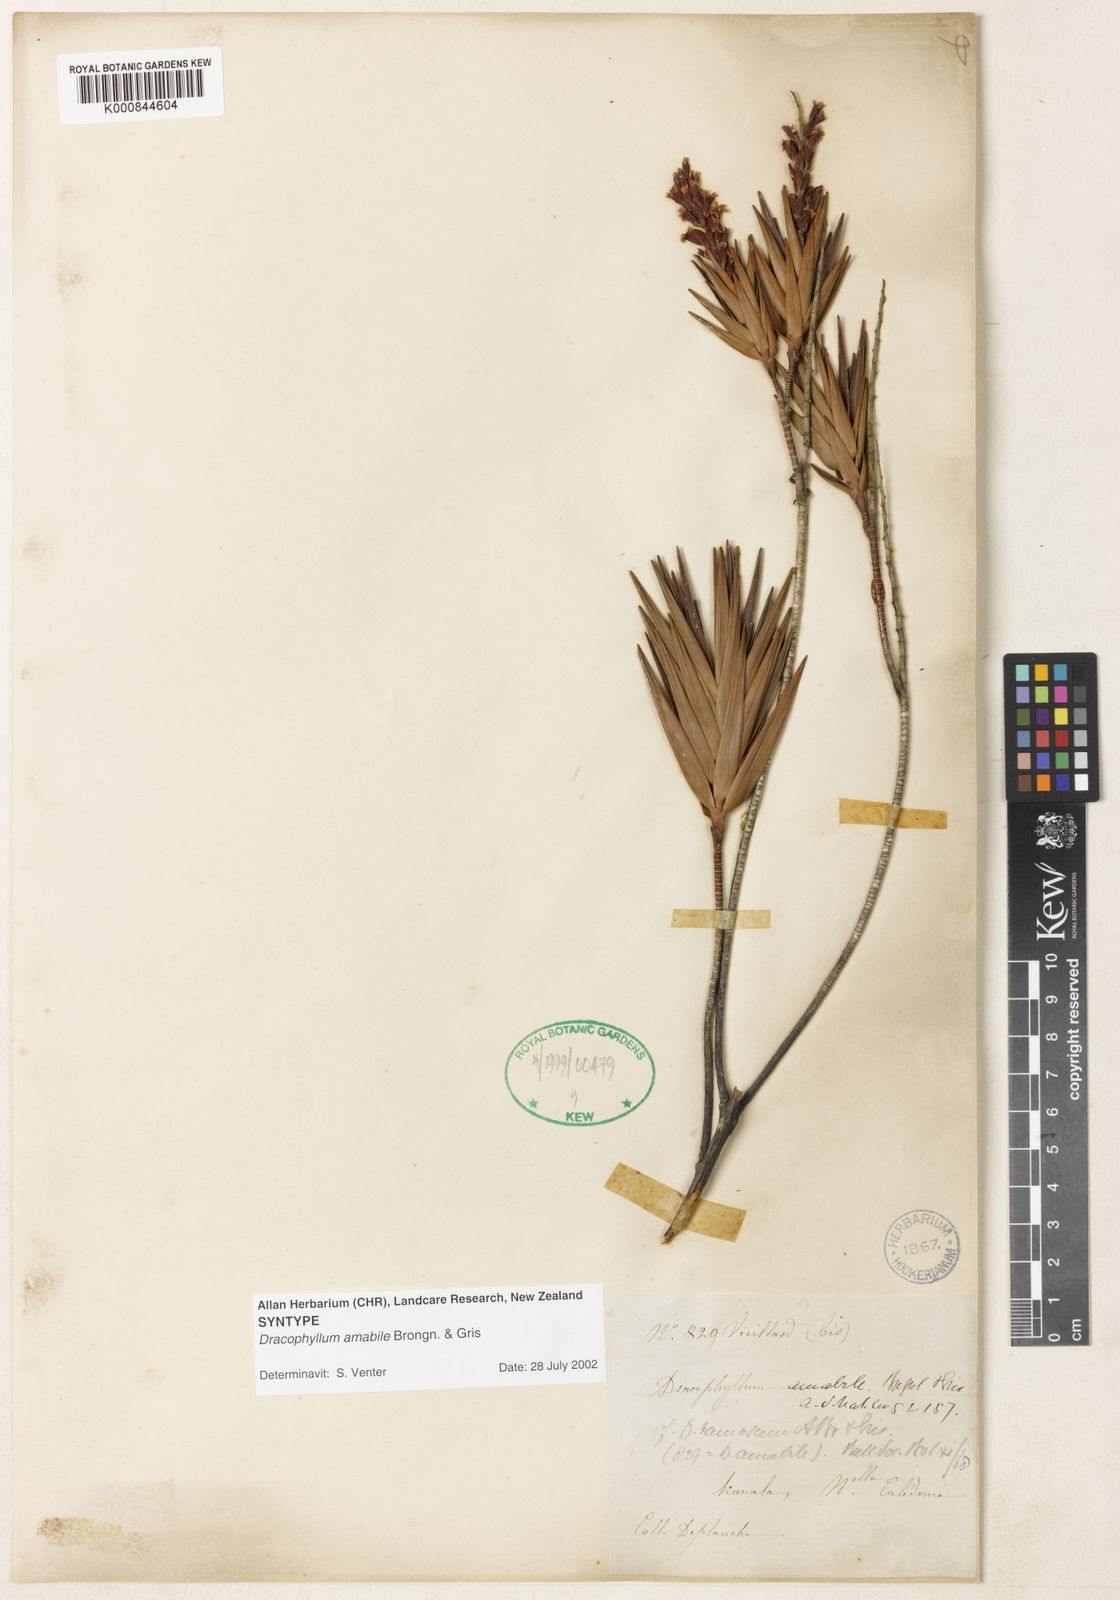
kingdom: Plantae
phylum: Tracheophyta
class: Magnoliopsida
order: Ericales
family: Ericaceae
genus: Dracophyllum
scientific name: Dracophyllum ramosum
